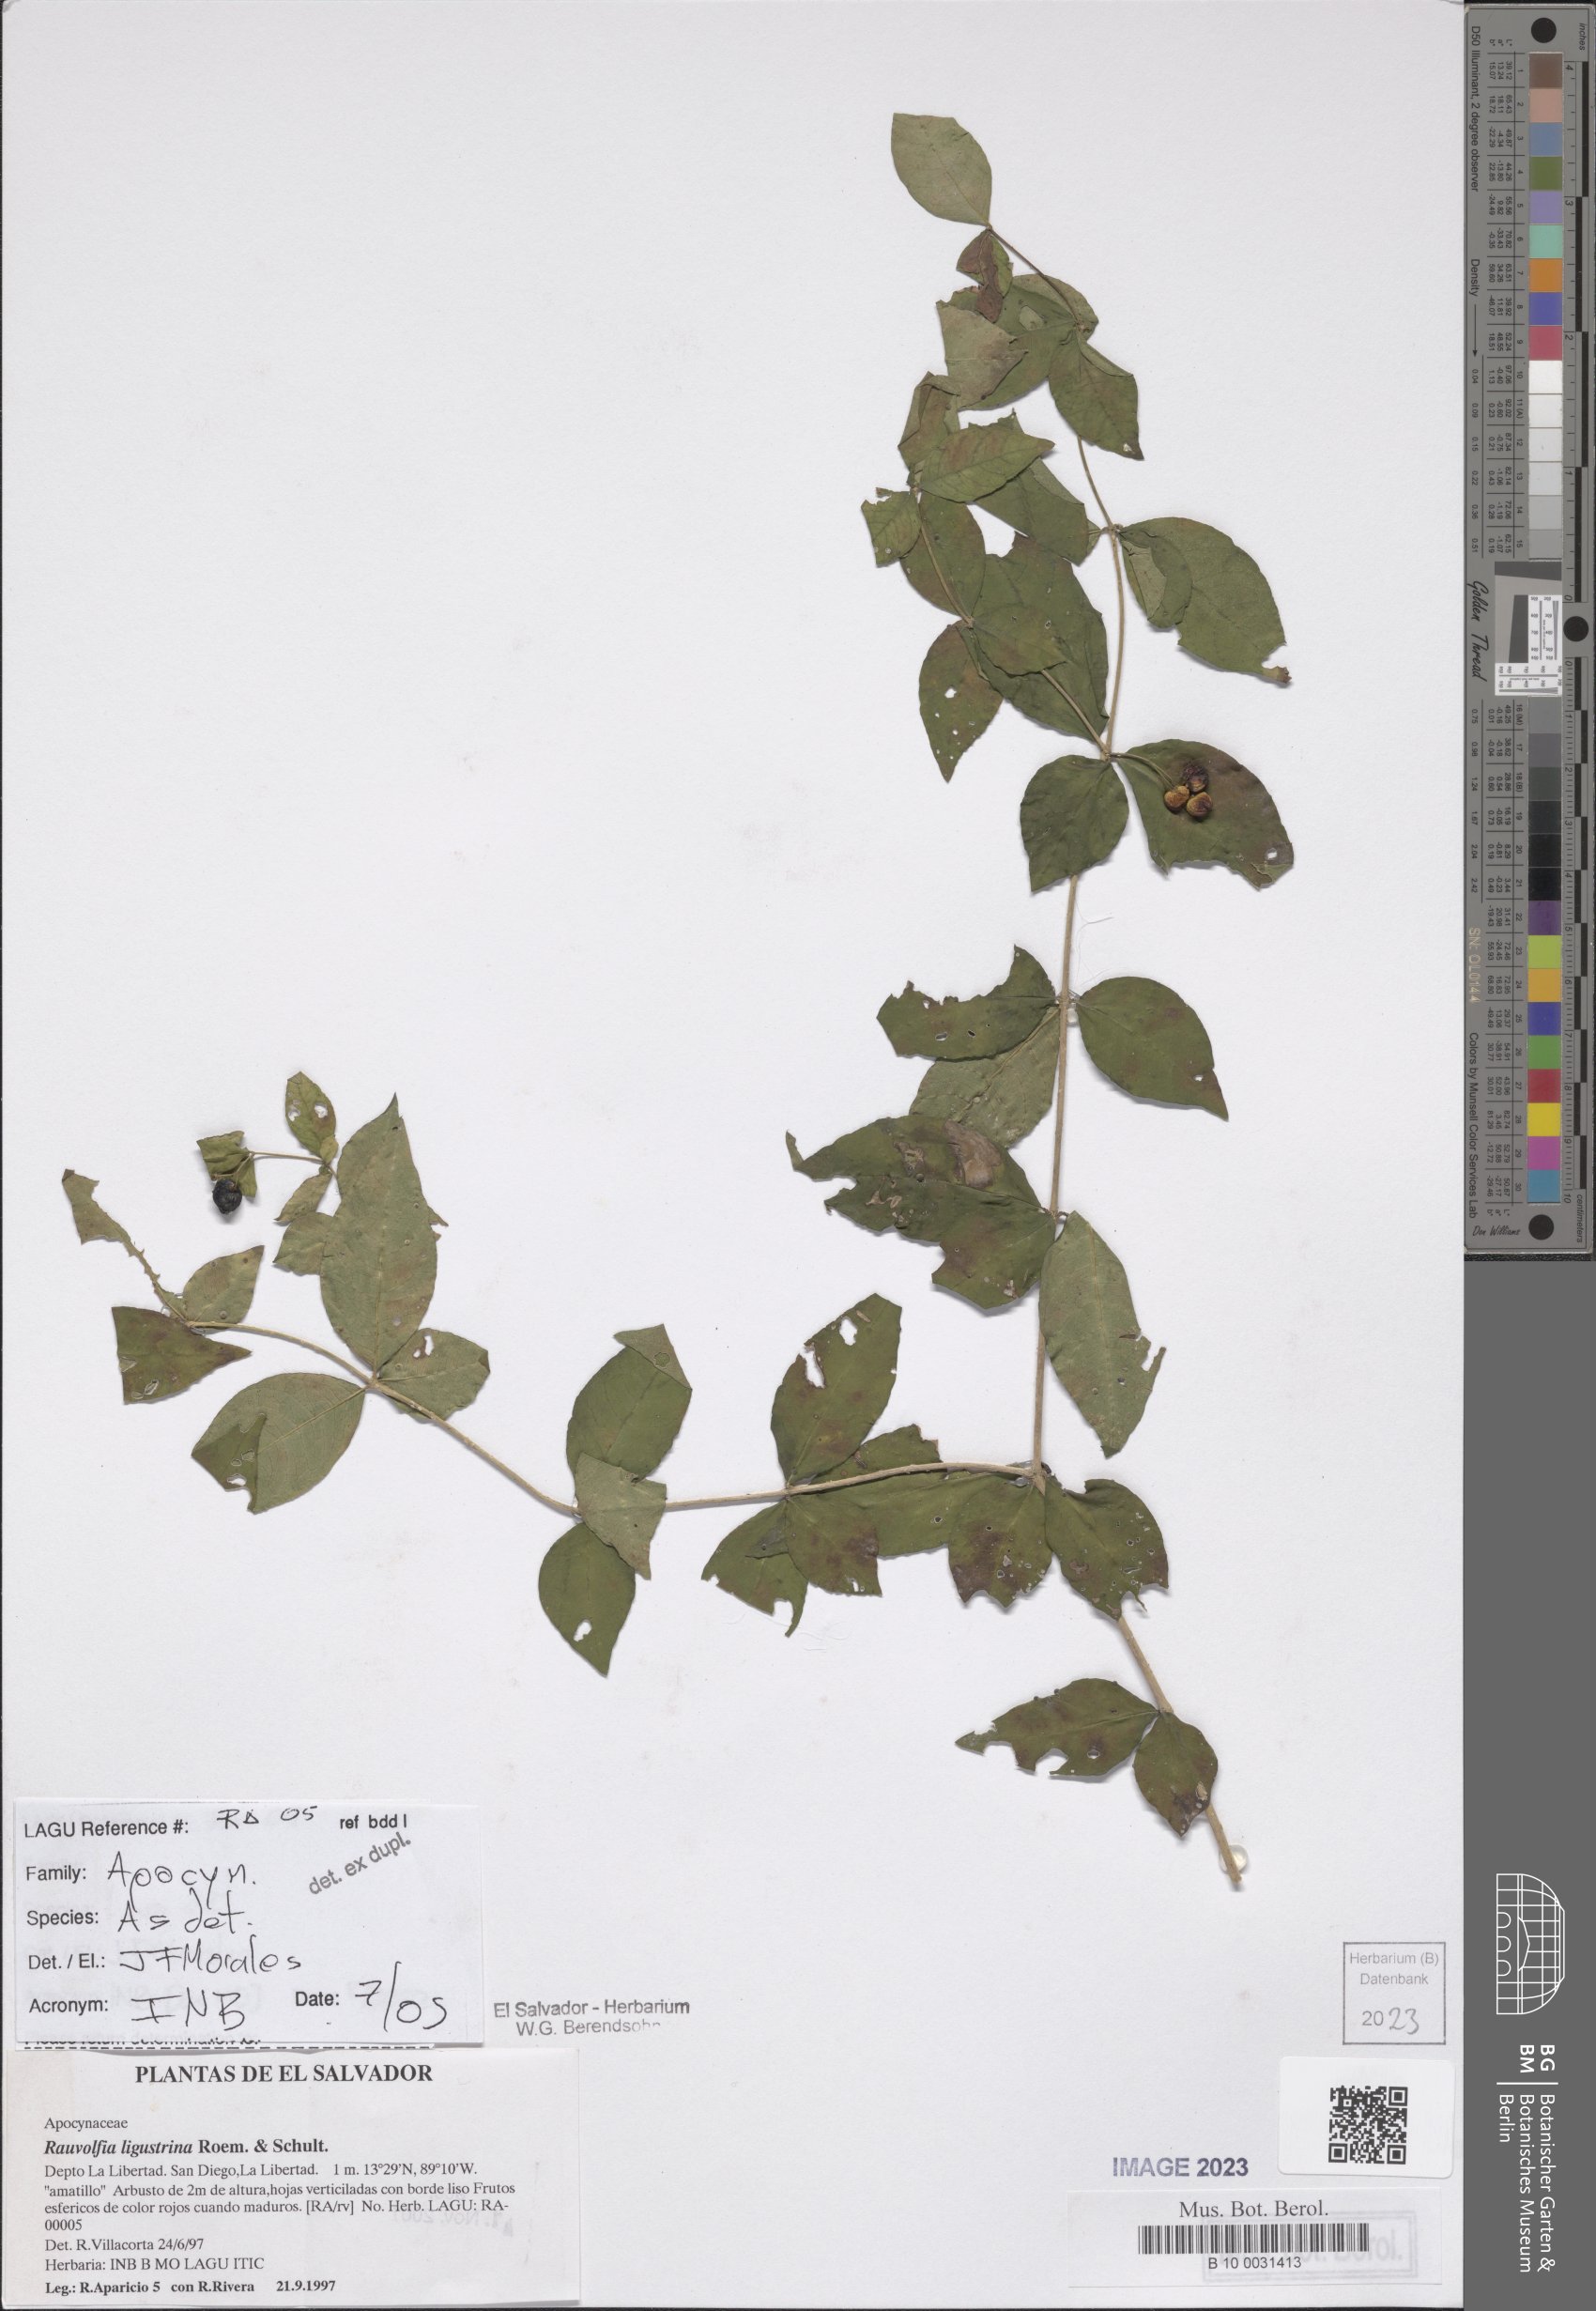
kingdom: Plantae
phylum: Tracheophyta
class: Magnoliopsida
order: Gentianales
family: Apocynaceae
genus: Rauvolfia
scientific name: Rauvolfia ligustrina
